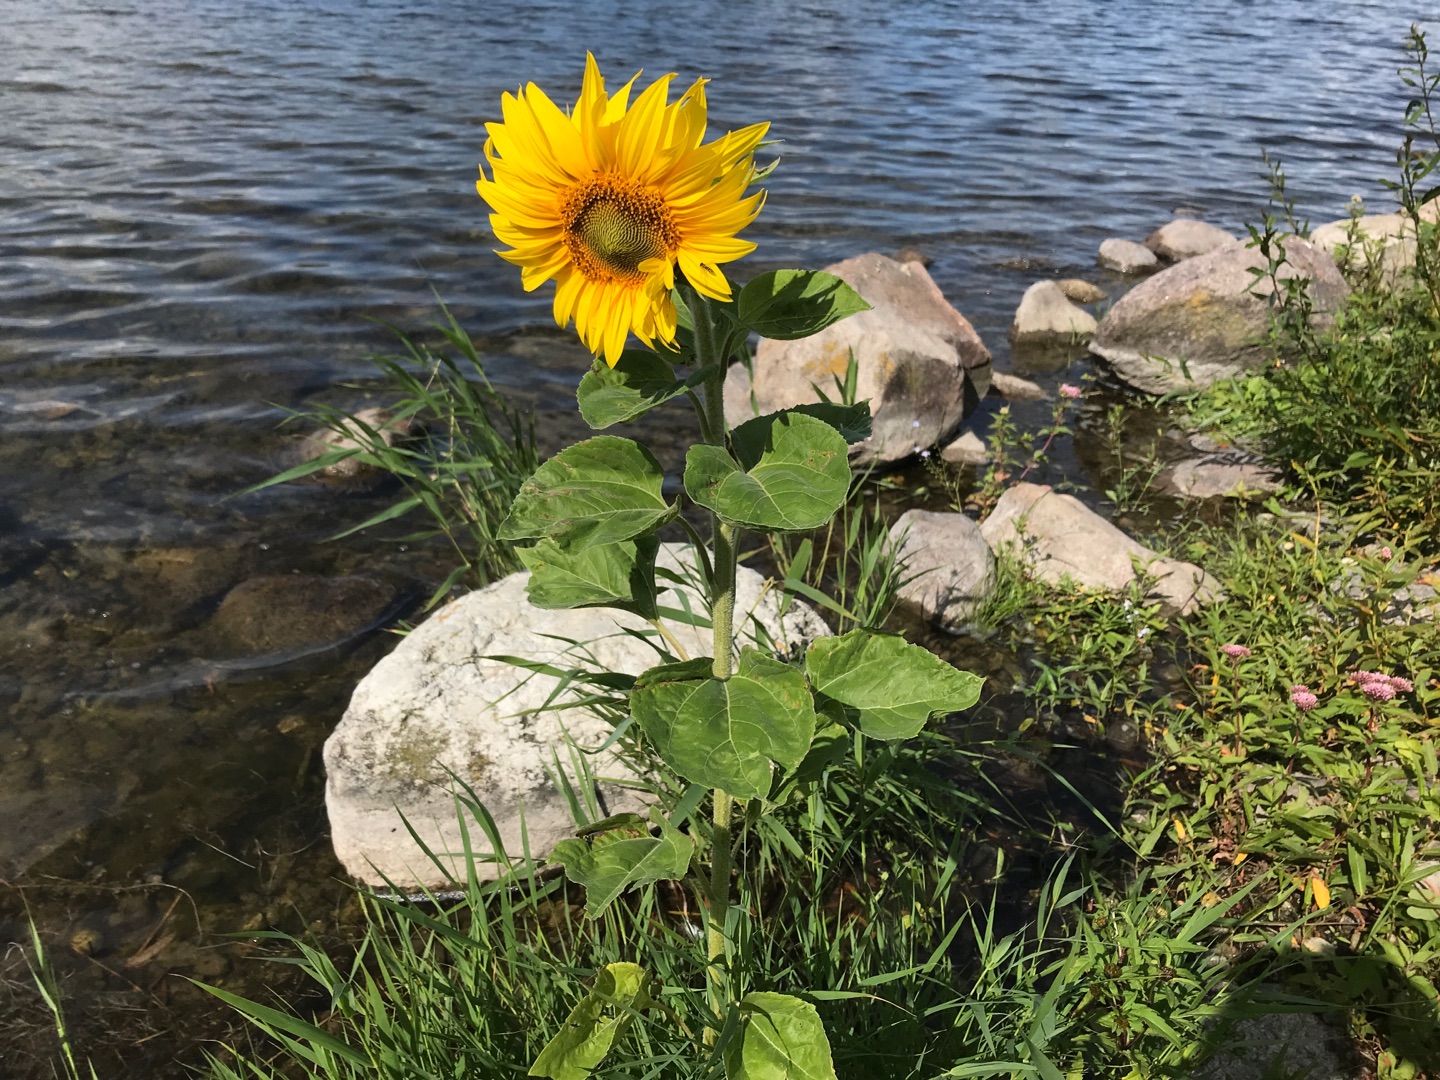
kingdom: Plantae
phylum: Tracheophyta
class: Magnoliopsida
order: Asterales
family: Asteraceae
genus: Helianthus
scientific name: Helianthus annuus
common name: Solsikke
